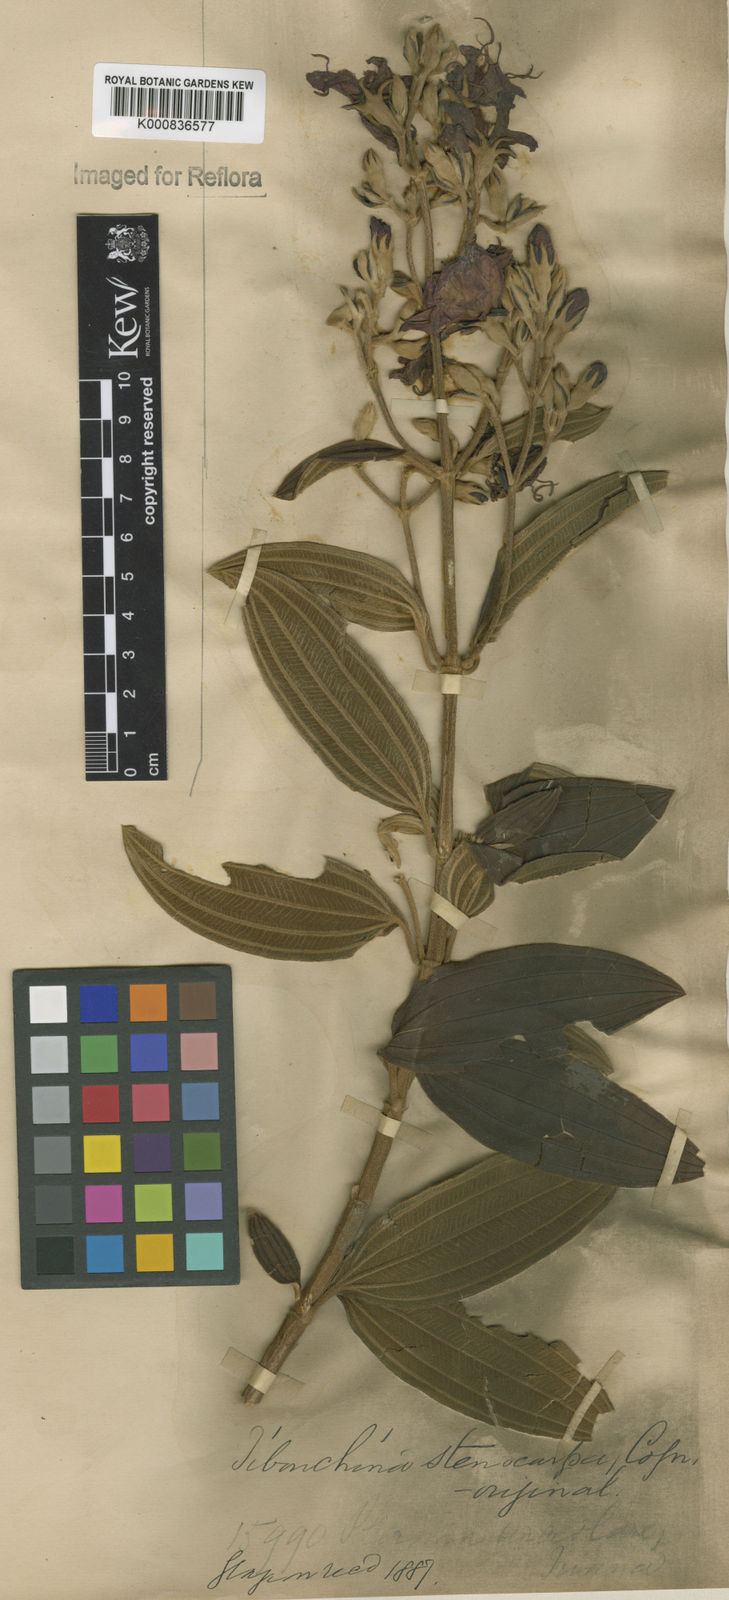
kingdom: Plantae
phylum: Tracheophyta
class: Magnoliopsida
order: Myrtales
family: Melastomataceae
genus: Pleroma
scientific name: Pleroma stenocarpum
